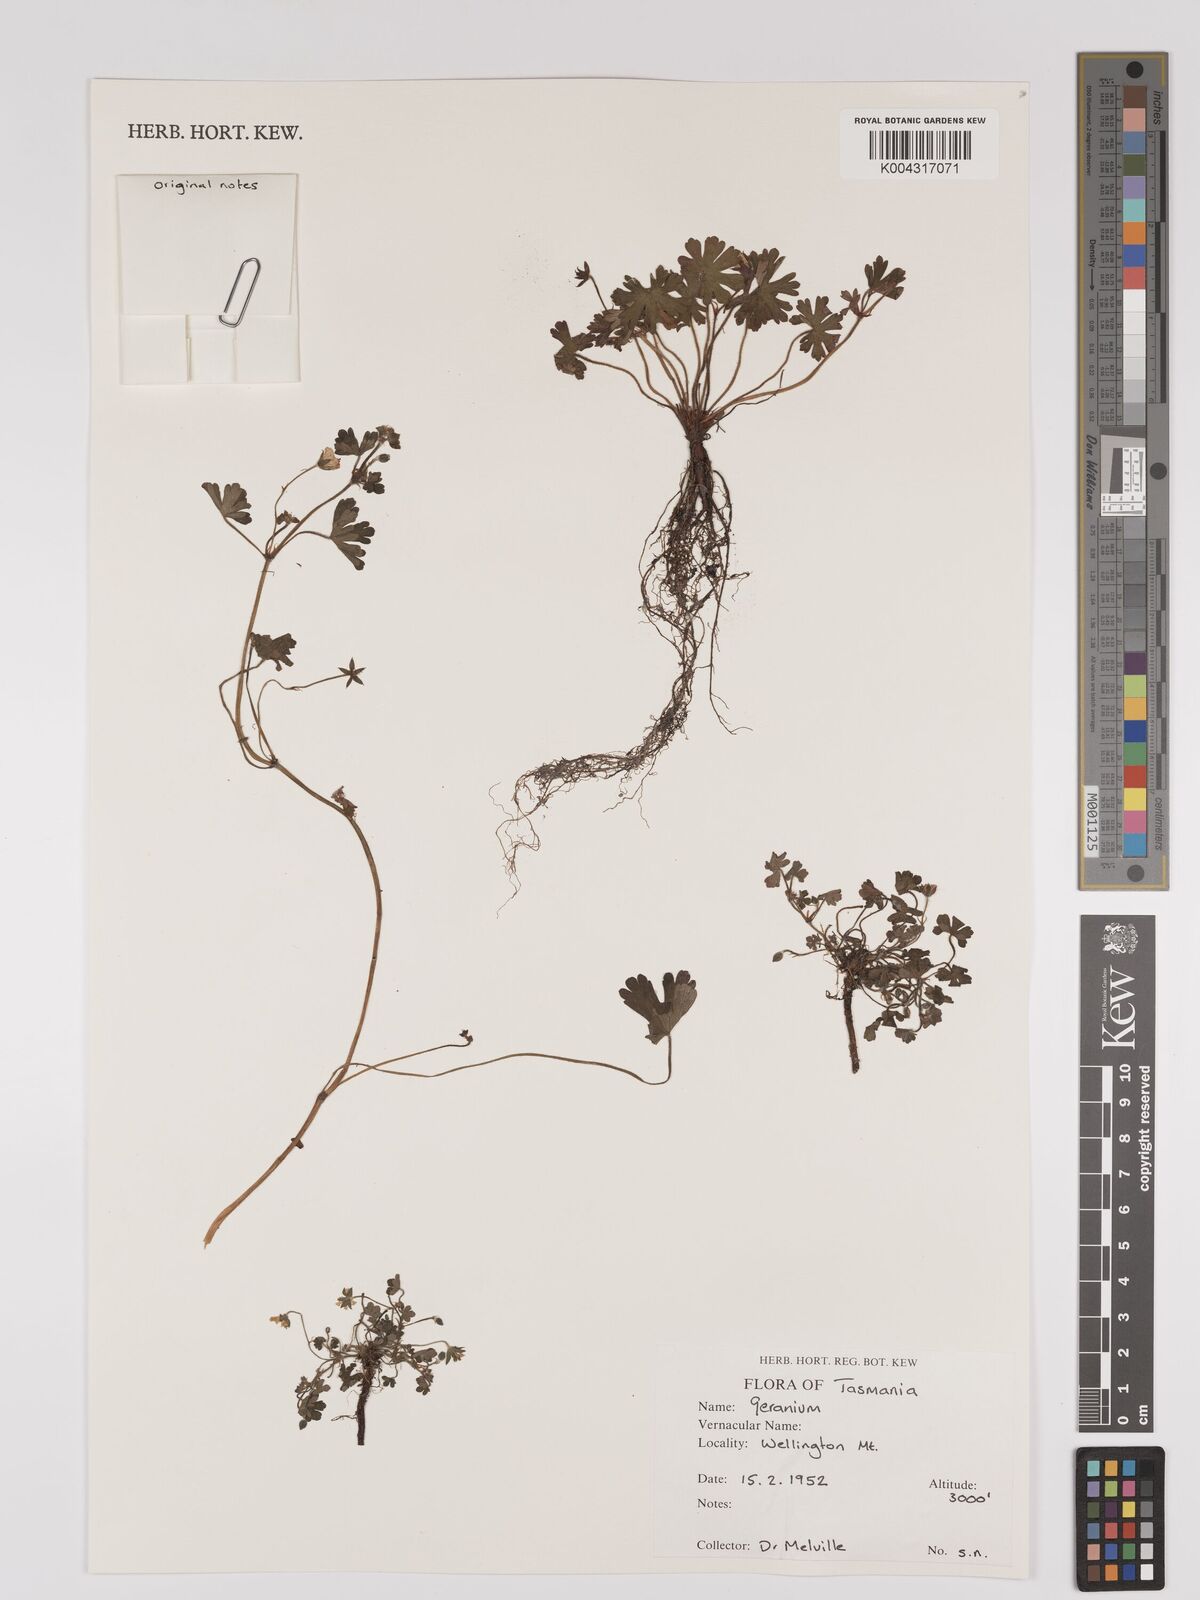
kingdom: Plantae
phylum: Tracheophyta
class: Magnoliopsida
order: Geraniales
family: Geraniaceae
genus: Geranium
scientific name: Geranium
